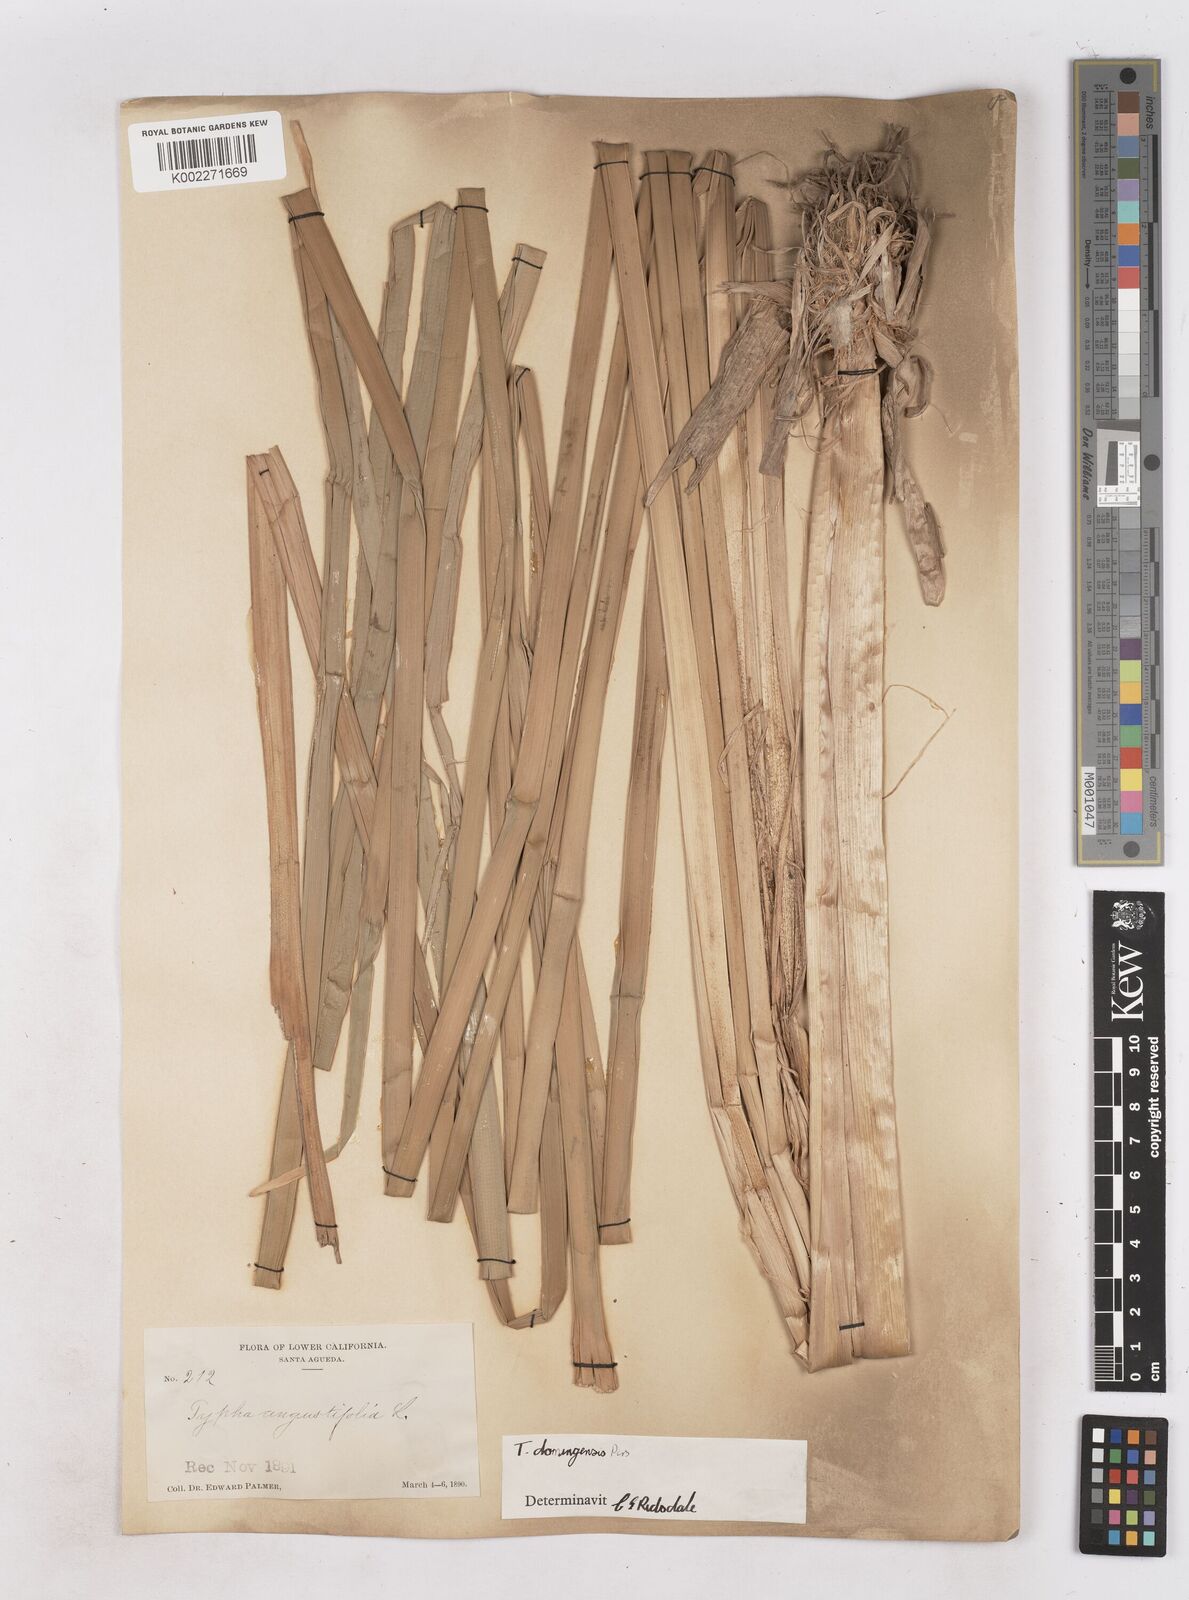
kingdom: Plantae
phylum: Tracheophyta
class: Liliopsida
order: Poales
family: Typhaceae
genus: Typha
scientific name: Typha domingensis
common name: Southern cattail
